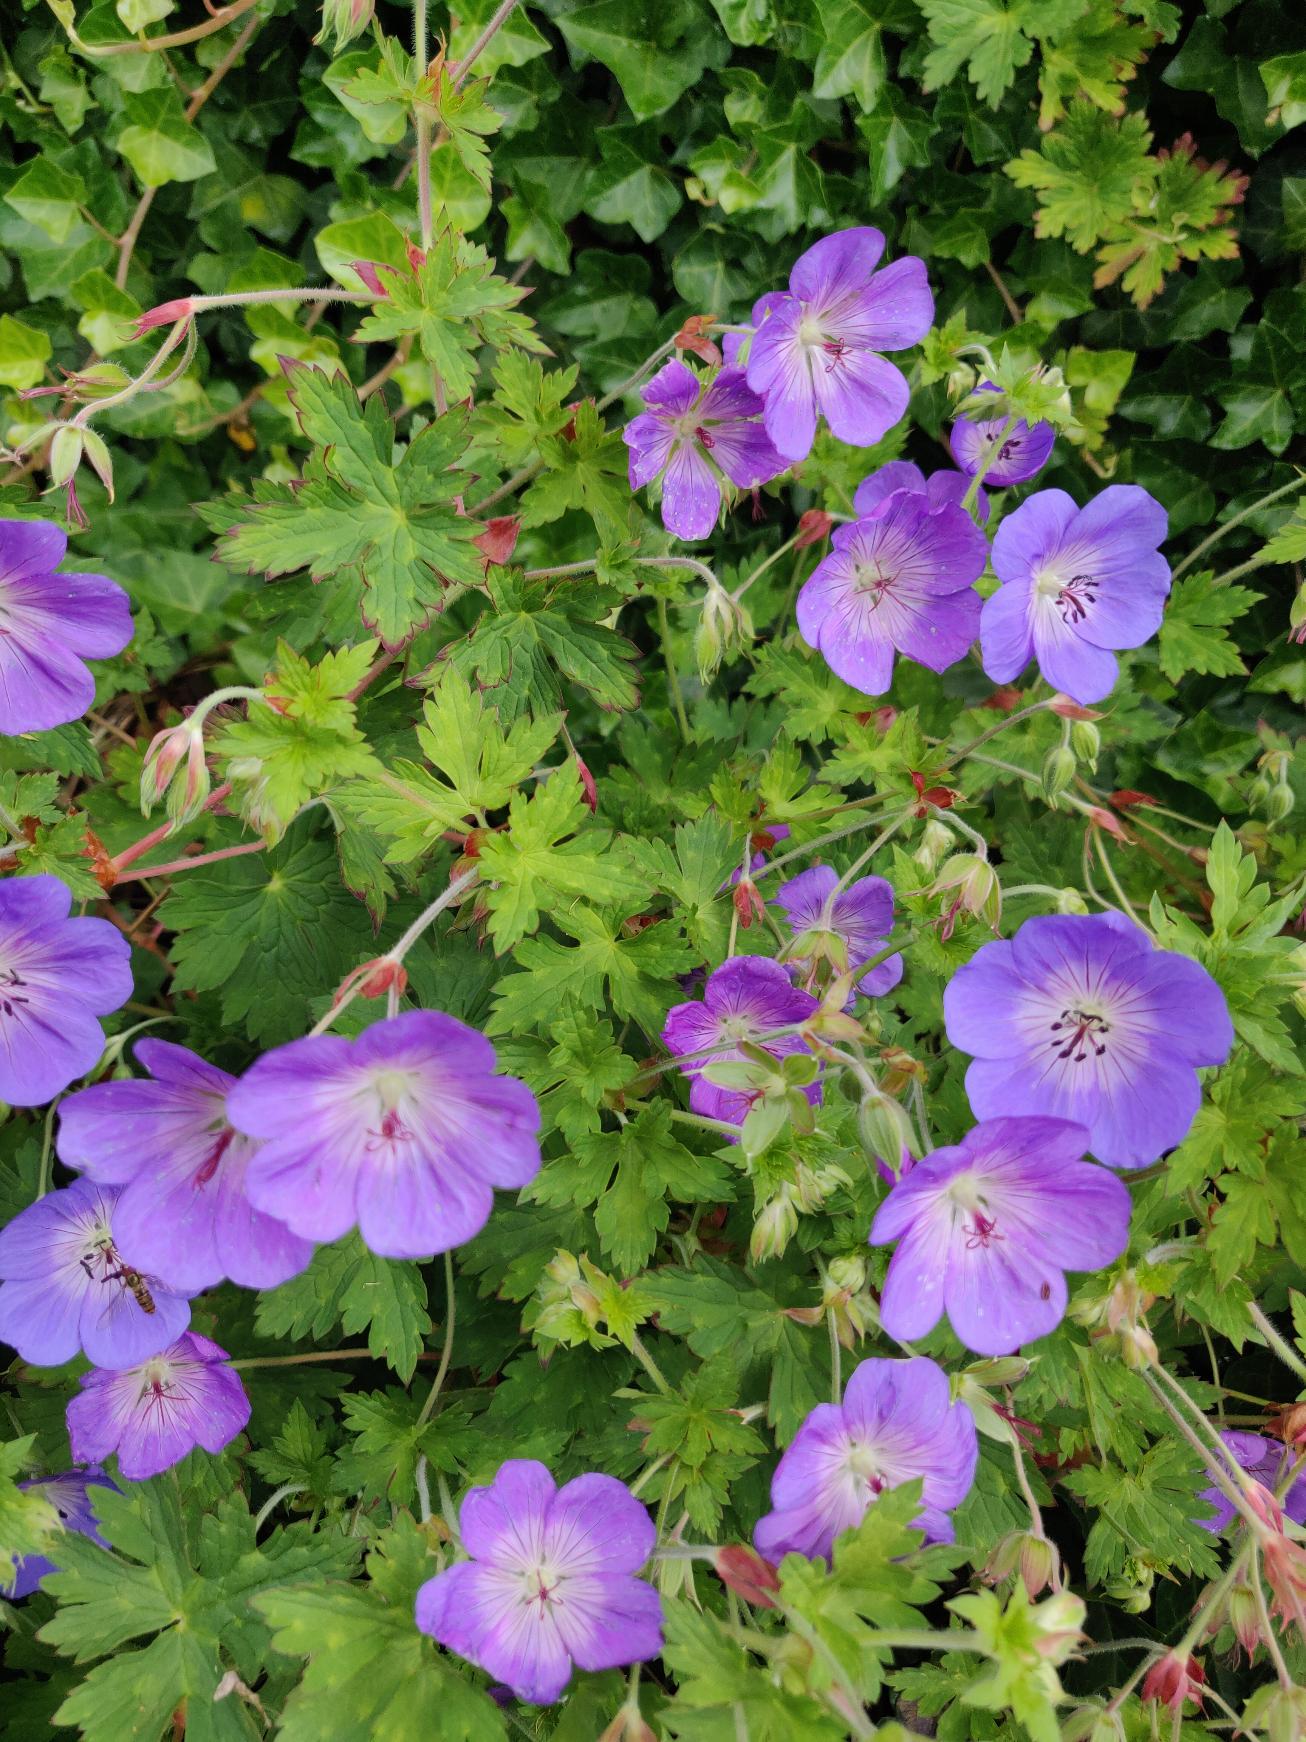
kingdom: Plantae
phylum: Tracheophyta
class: Magnoliopsida
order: Geraniales
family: Geraniaceae
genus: Geranium
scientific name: Geranium pratense
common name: Eng-storkenæb
